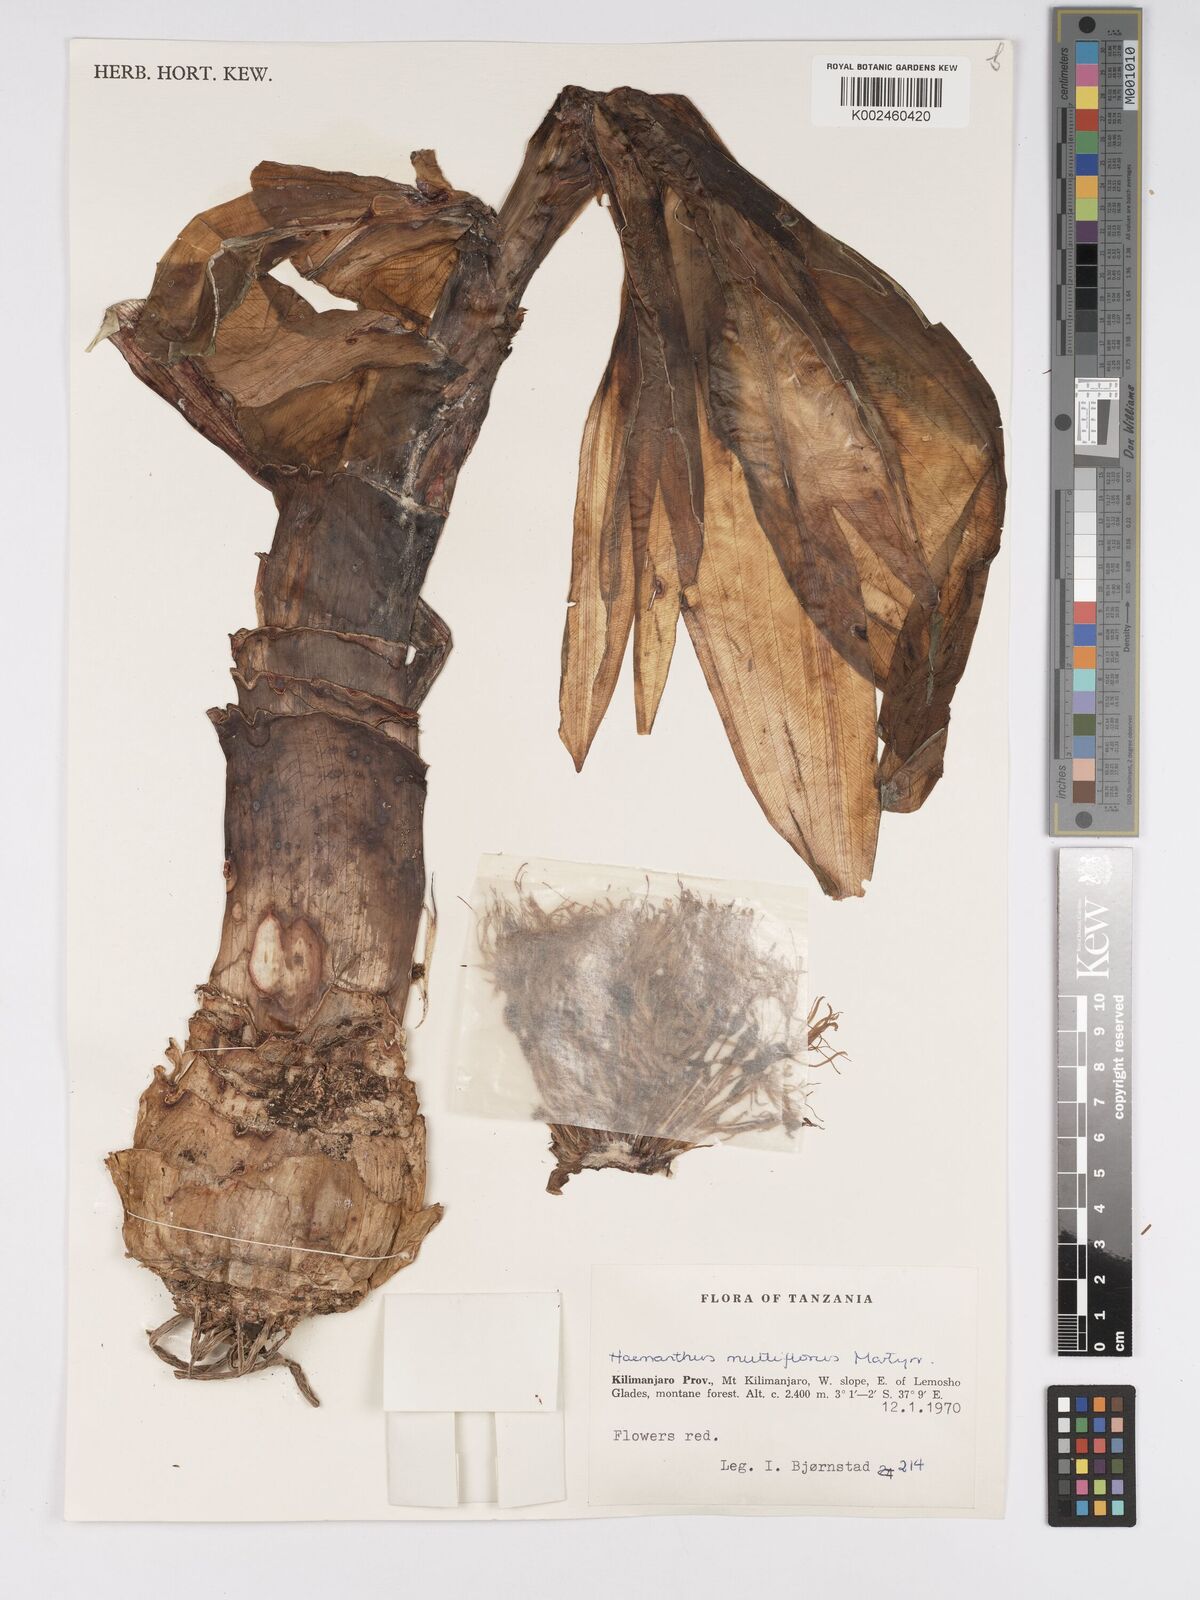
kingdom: Plantae
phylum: Tracheophyta
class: Liliopsida
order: Asparagales
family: Amaryllidaceae
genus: Scadoxus
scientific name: Scadoxus multiflorus
